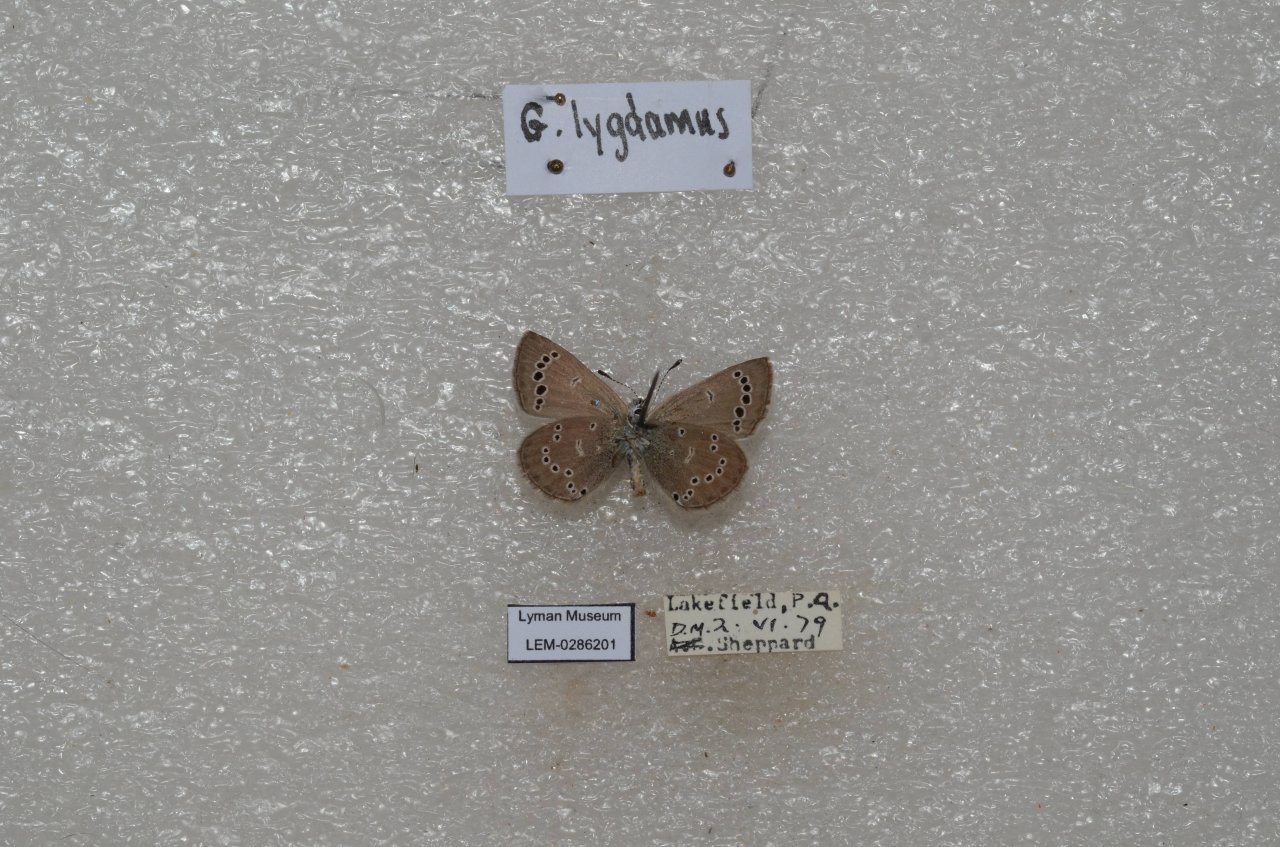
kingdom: Animalia
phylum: Arthropoda
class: Insecta
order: Lepidoptera
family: Lycaenidae
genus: Glaucopsyche
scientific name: Glaucopsyche lygdamus
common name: Silvery Blue
